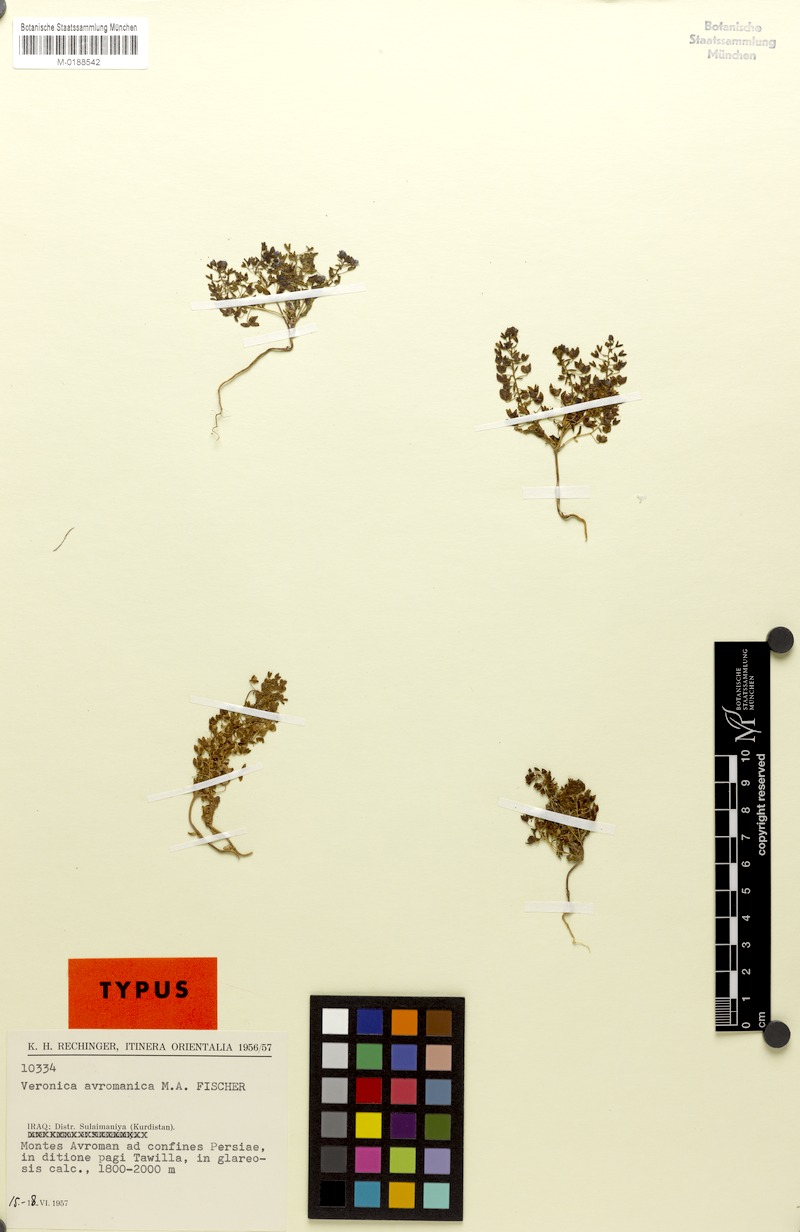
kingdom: Plantae
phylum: Tracheophyta
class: Magnoliopsida
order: Lamiales
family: Plantaginaceae
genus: Veronica
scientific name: Veronica avromanica
